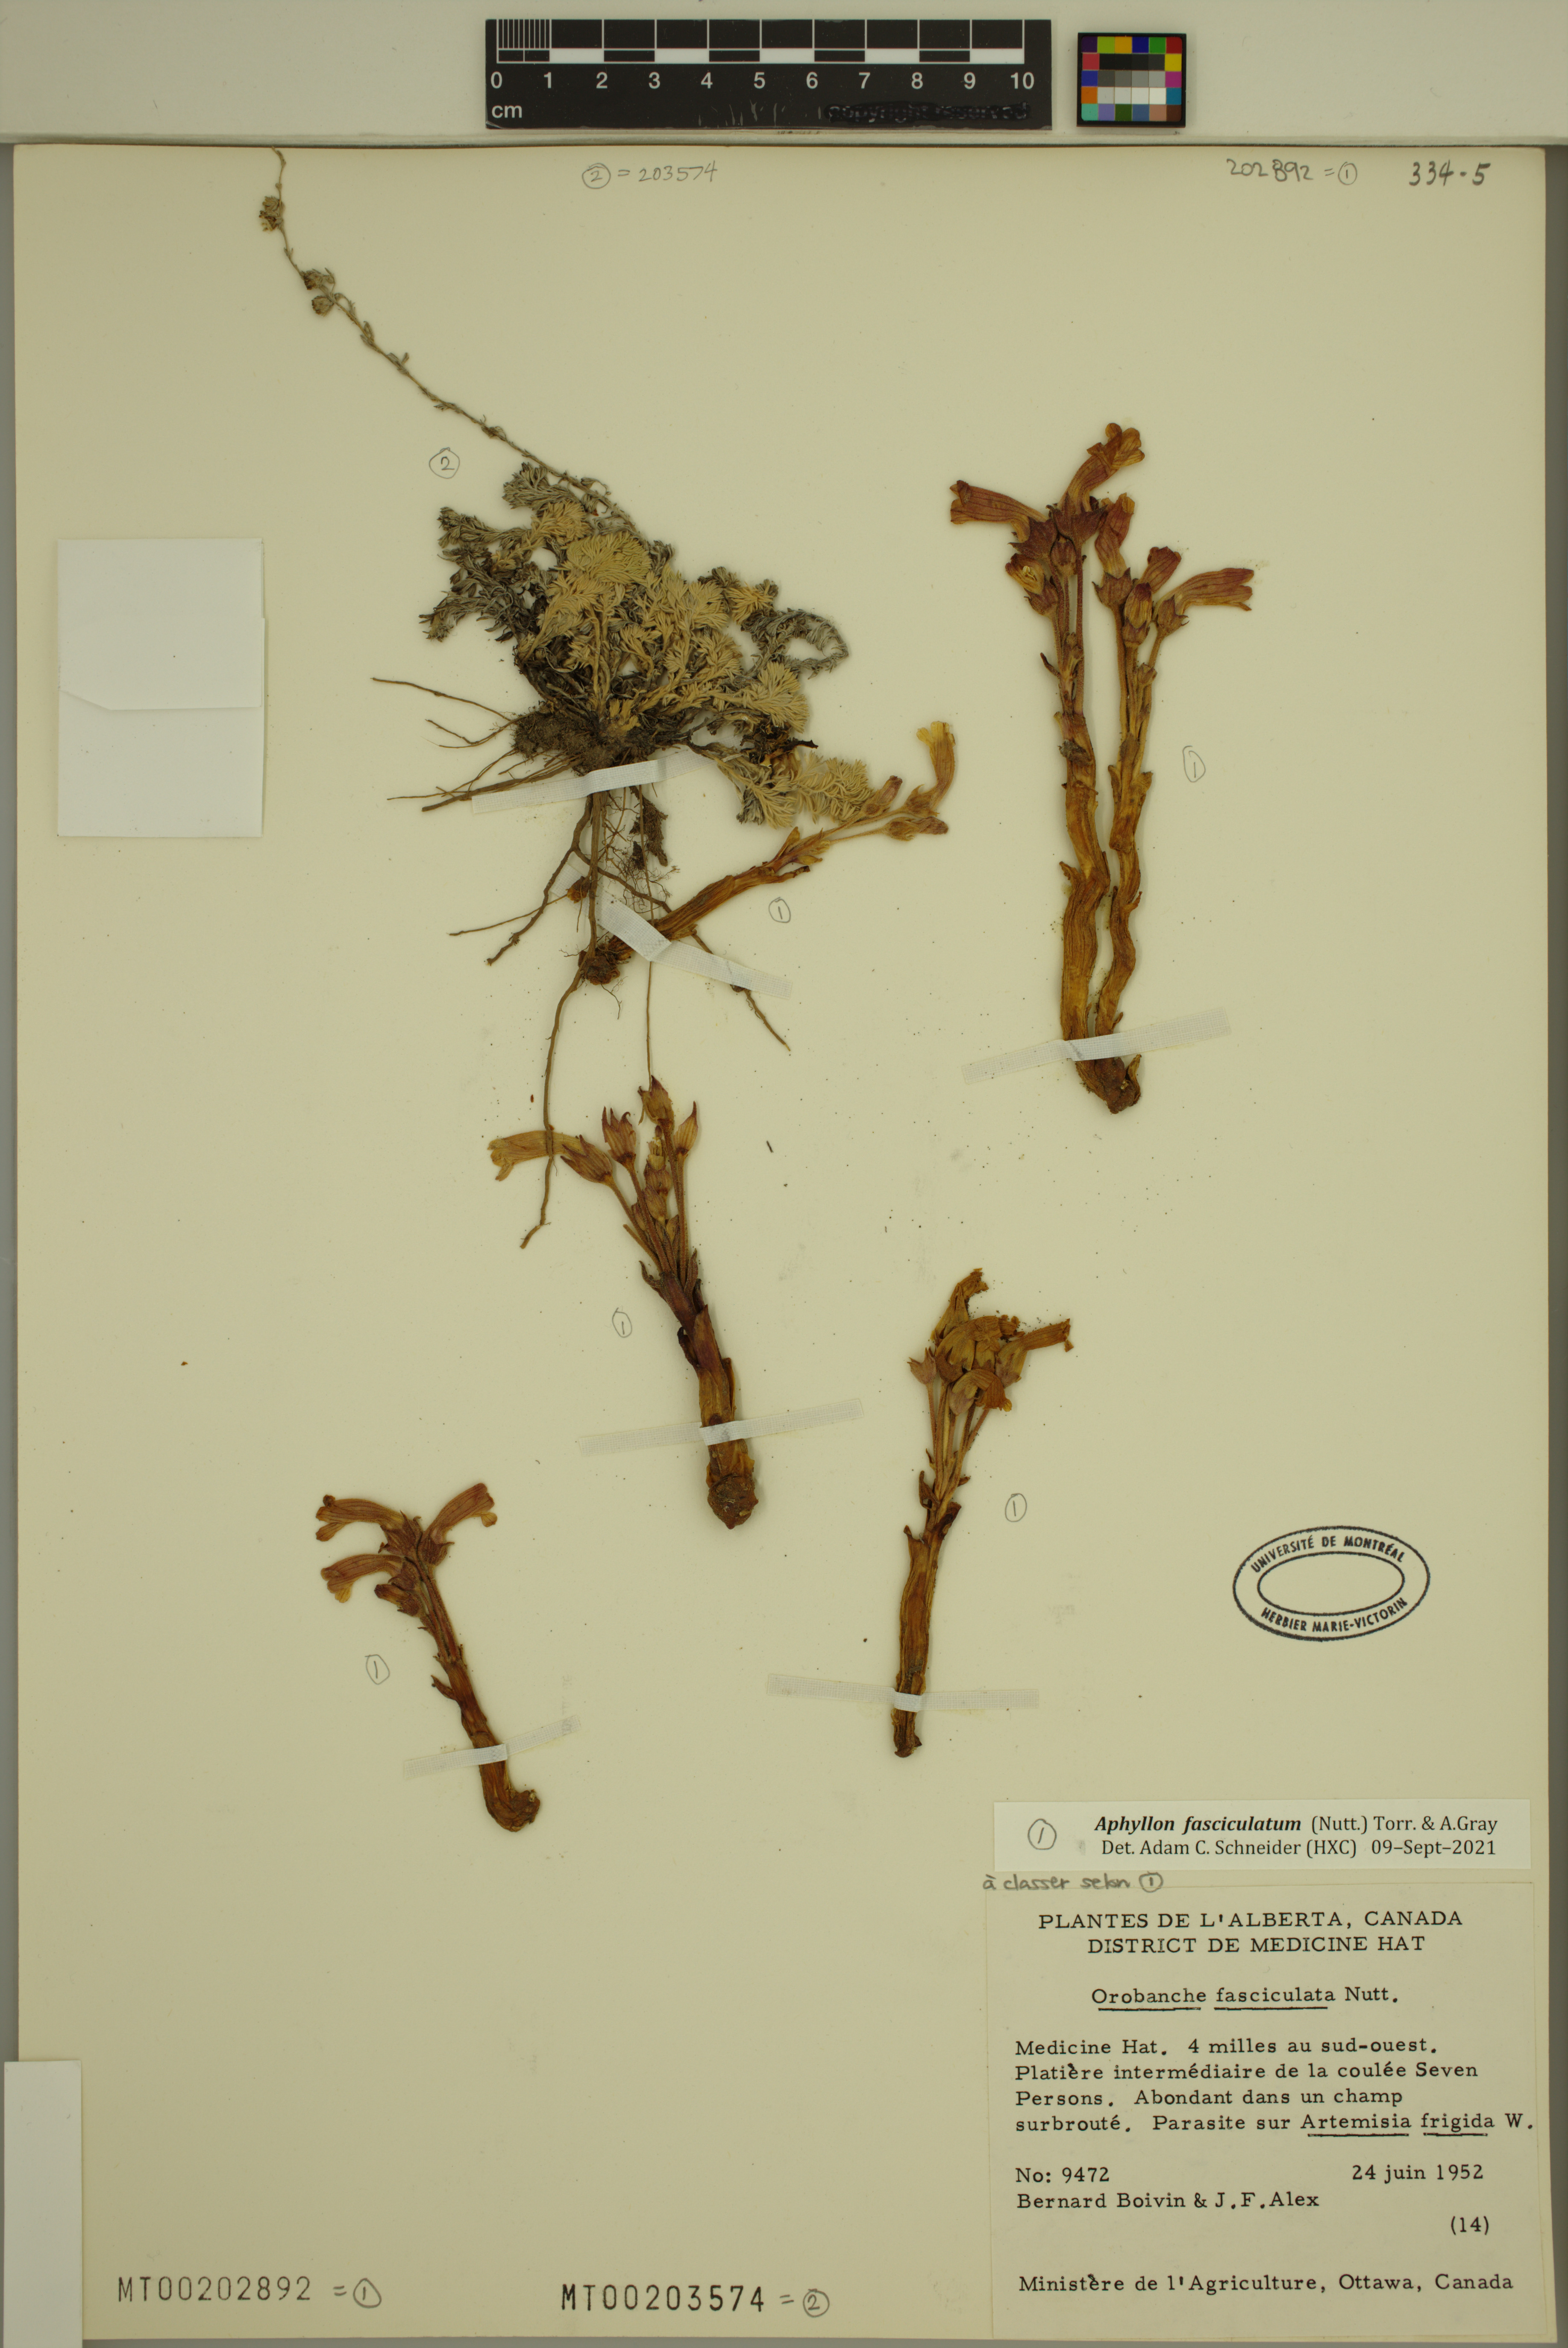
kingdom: Plantae
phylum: Tracheophyta
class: Magnoliopsida
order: Lamiales
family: Orobanchaceae
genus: Aphyllon
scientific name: Aphyllon fasciculatum
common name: Clustered broomrape
